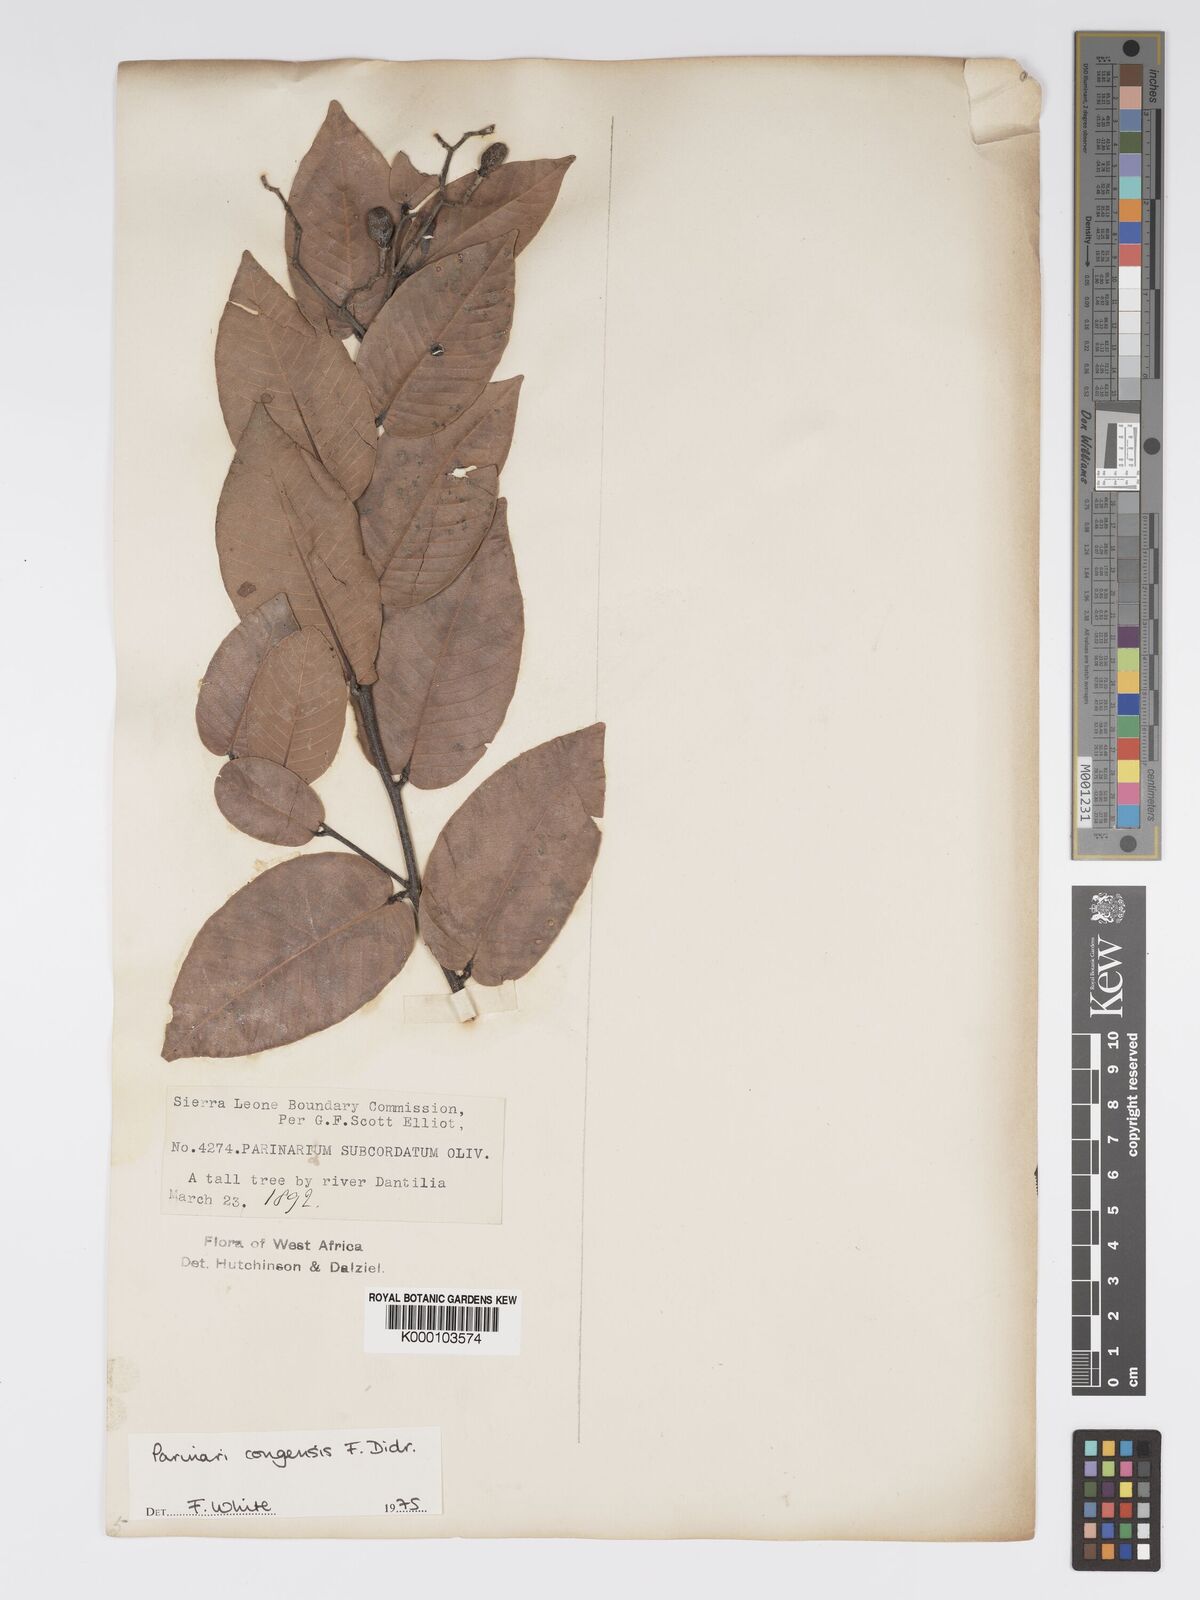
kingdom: Plantae
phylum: Tracheophyta
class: Magnoliopsida
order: Malpighiales
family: Chrysobalanaceae
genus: Parinari
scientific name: Parinari congensis
